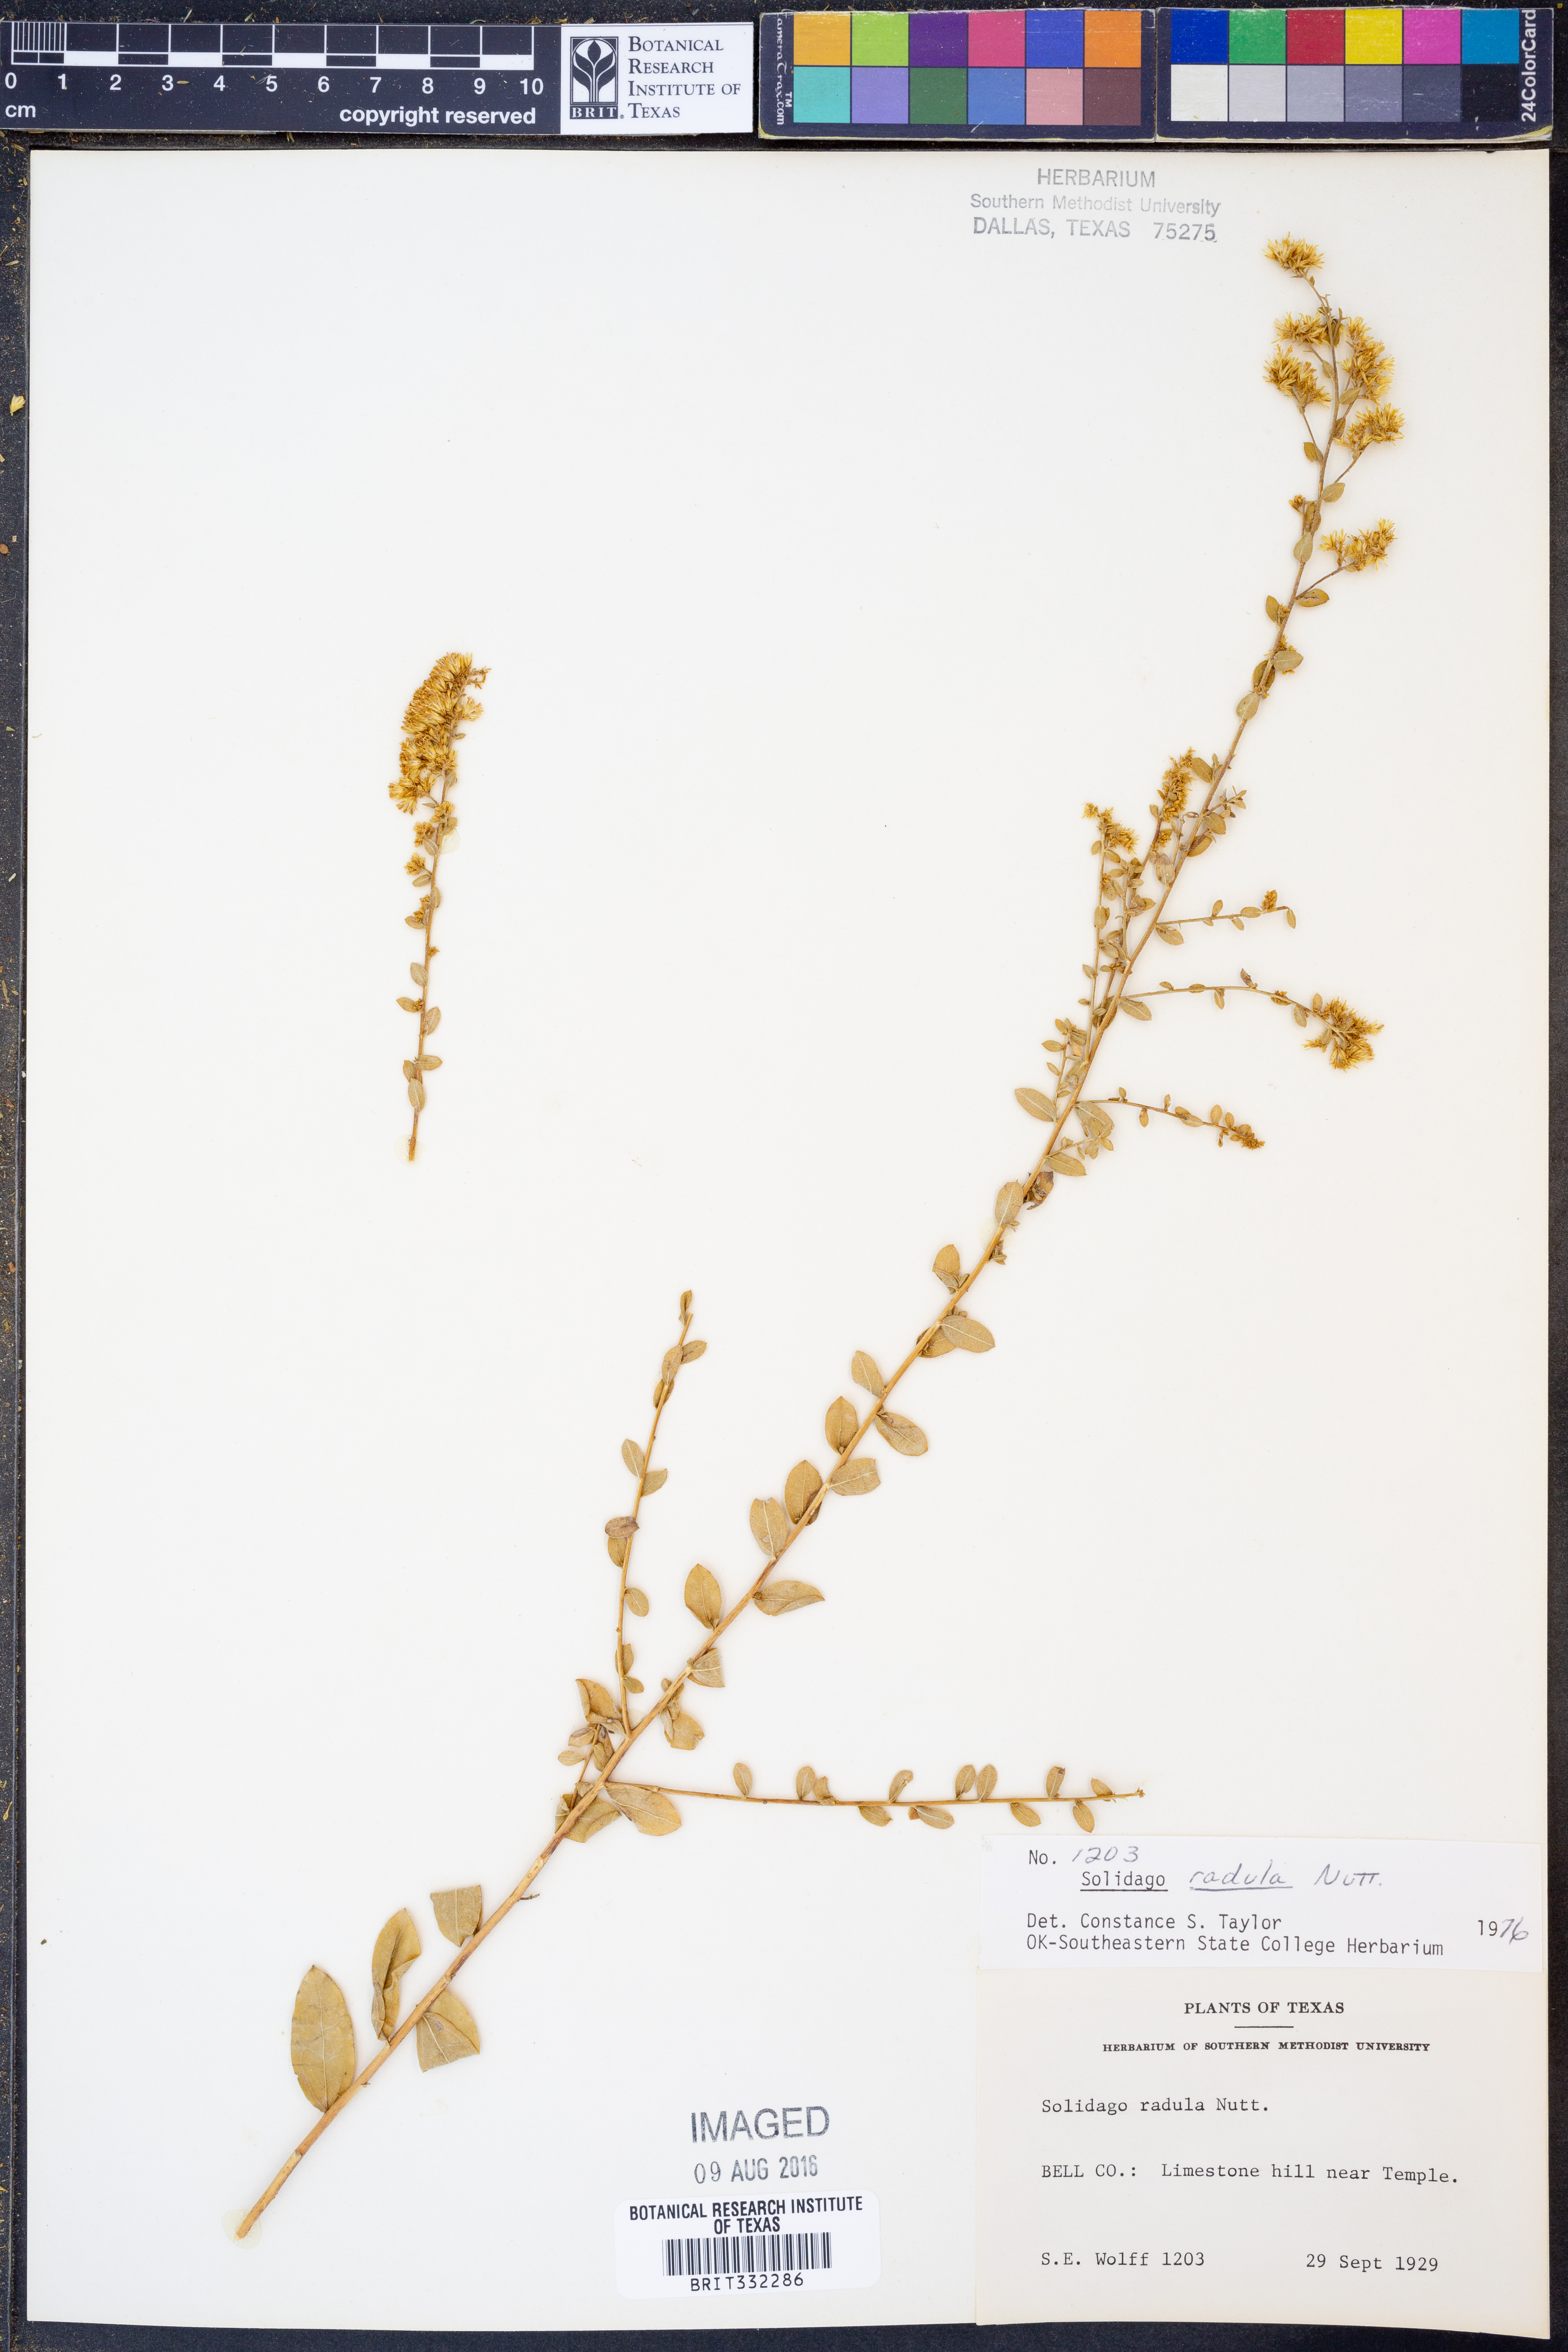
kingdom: Plantae
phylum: Tracheophyta
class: Magnoliopsida
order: Asterales
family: Asteraceae
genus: Solidago
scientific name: Solidago radula
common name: Western rough goldenrod
